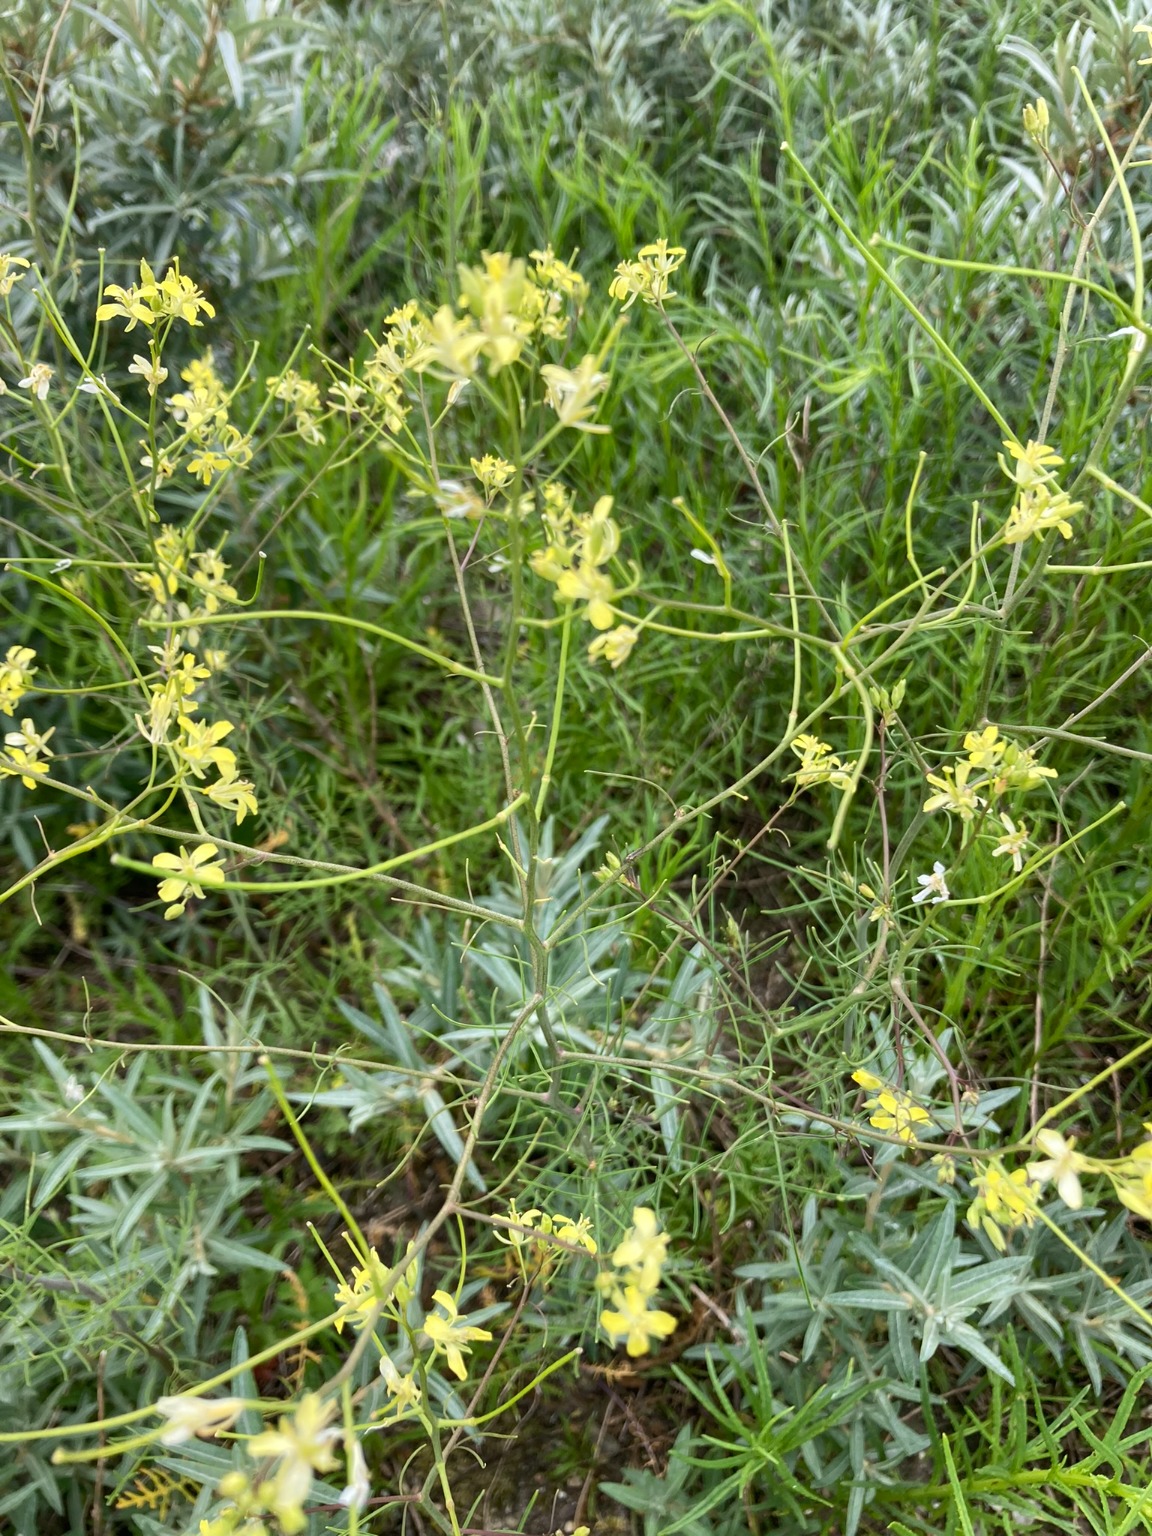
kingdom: Plantae
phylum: Tracheophyta
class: Magnoliopsida
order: Brassicales
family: Brassicaceae
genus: Sisymbrium
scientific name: Sisymbrium altissimum
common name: Ungarsk vejsennep
